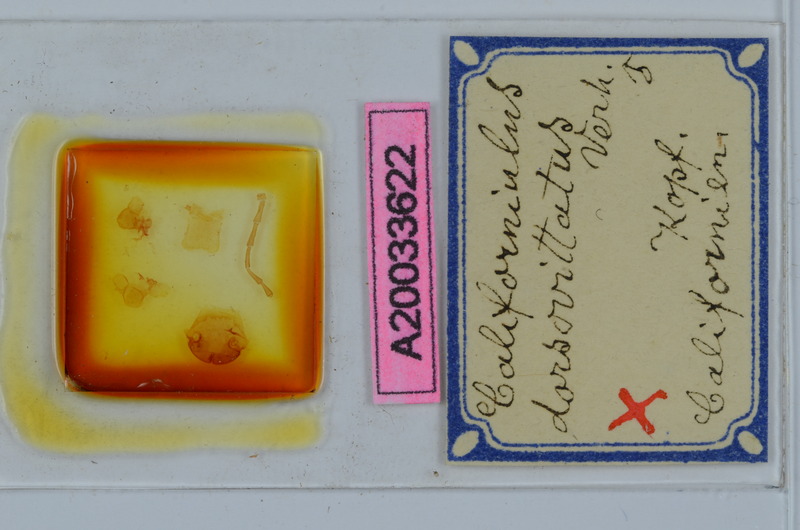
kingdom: Animalia
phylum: Arthropoda
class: Diplopoda
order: Julida
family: Paeromopodidae
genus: Californiulus
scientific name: Californiulus dorsovittatus
